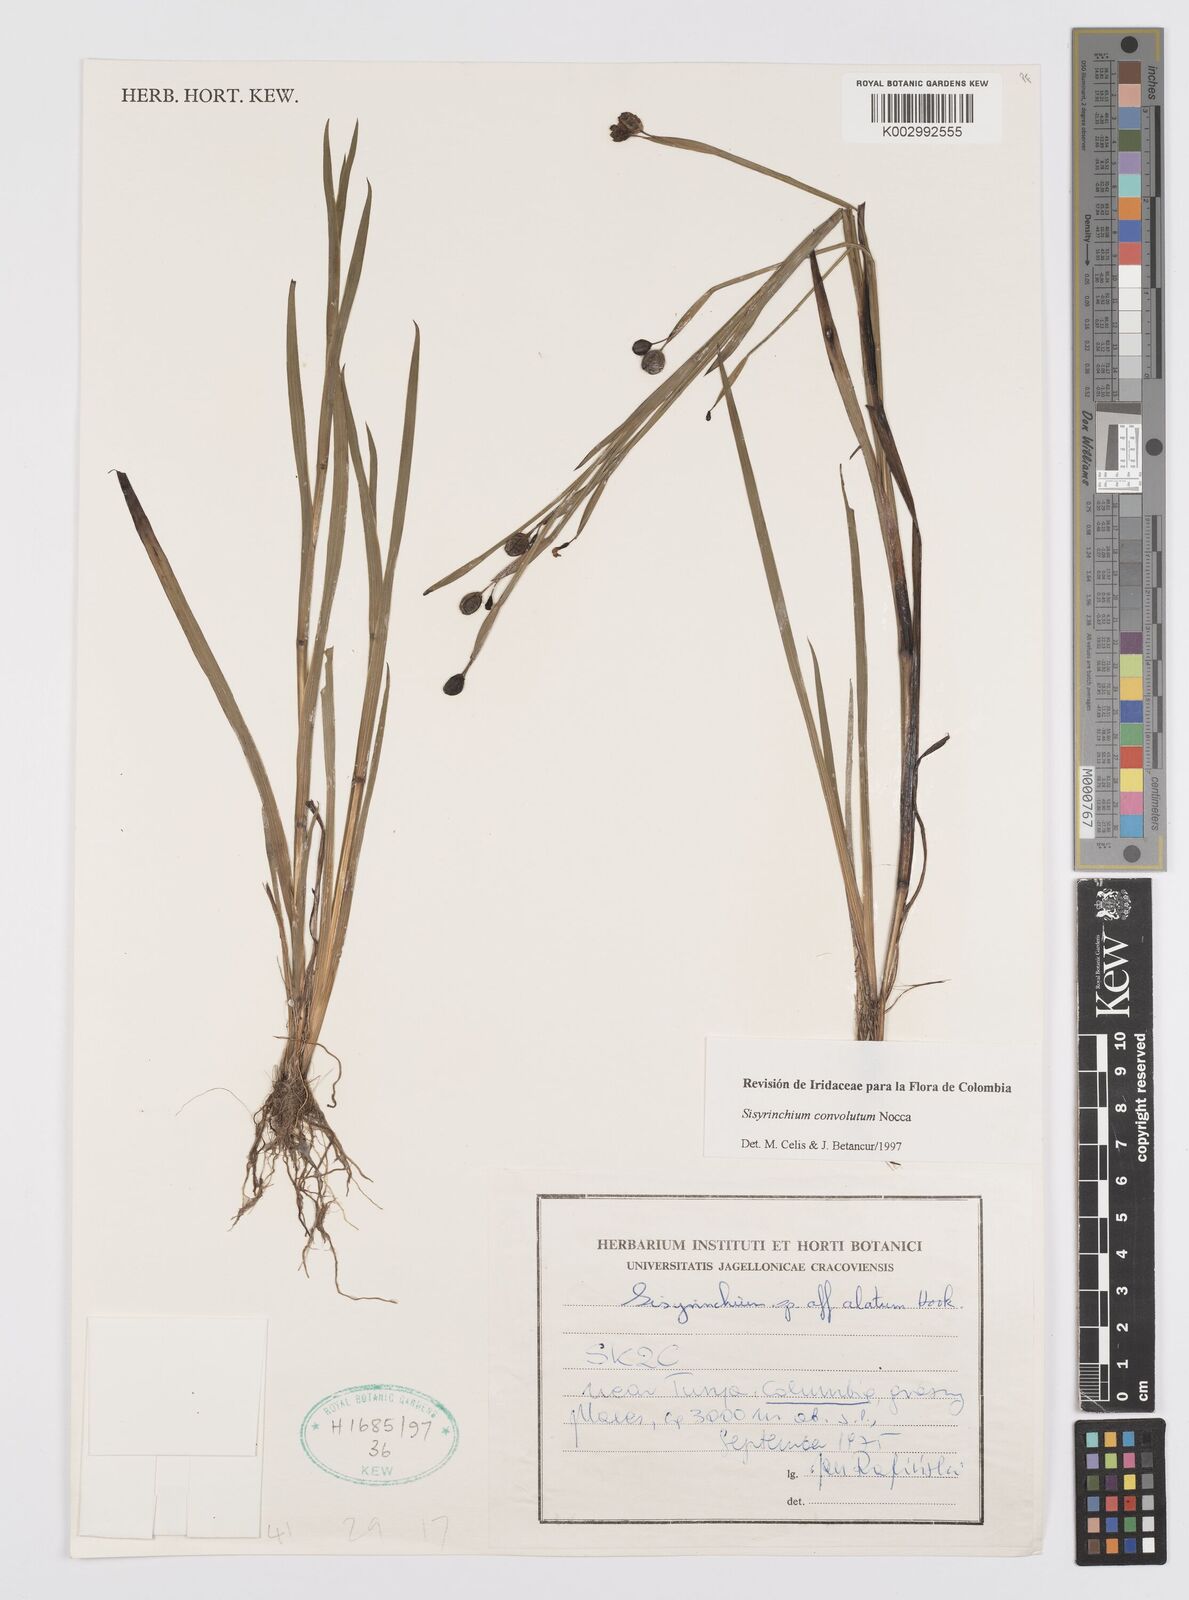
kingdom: Plantae
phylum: Tracheophyta
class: Liliopsida
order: Asparagales
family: Iridaceae
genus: Sisyrinchium
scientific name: Sisyrinchium convolutum
